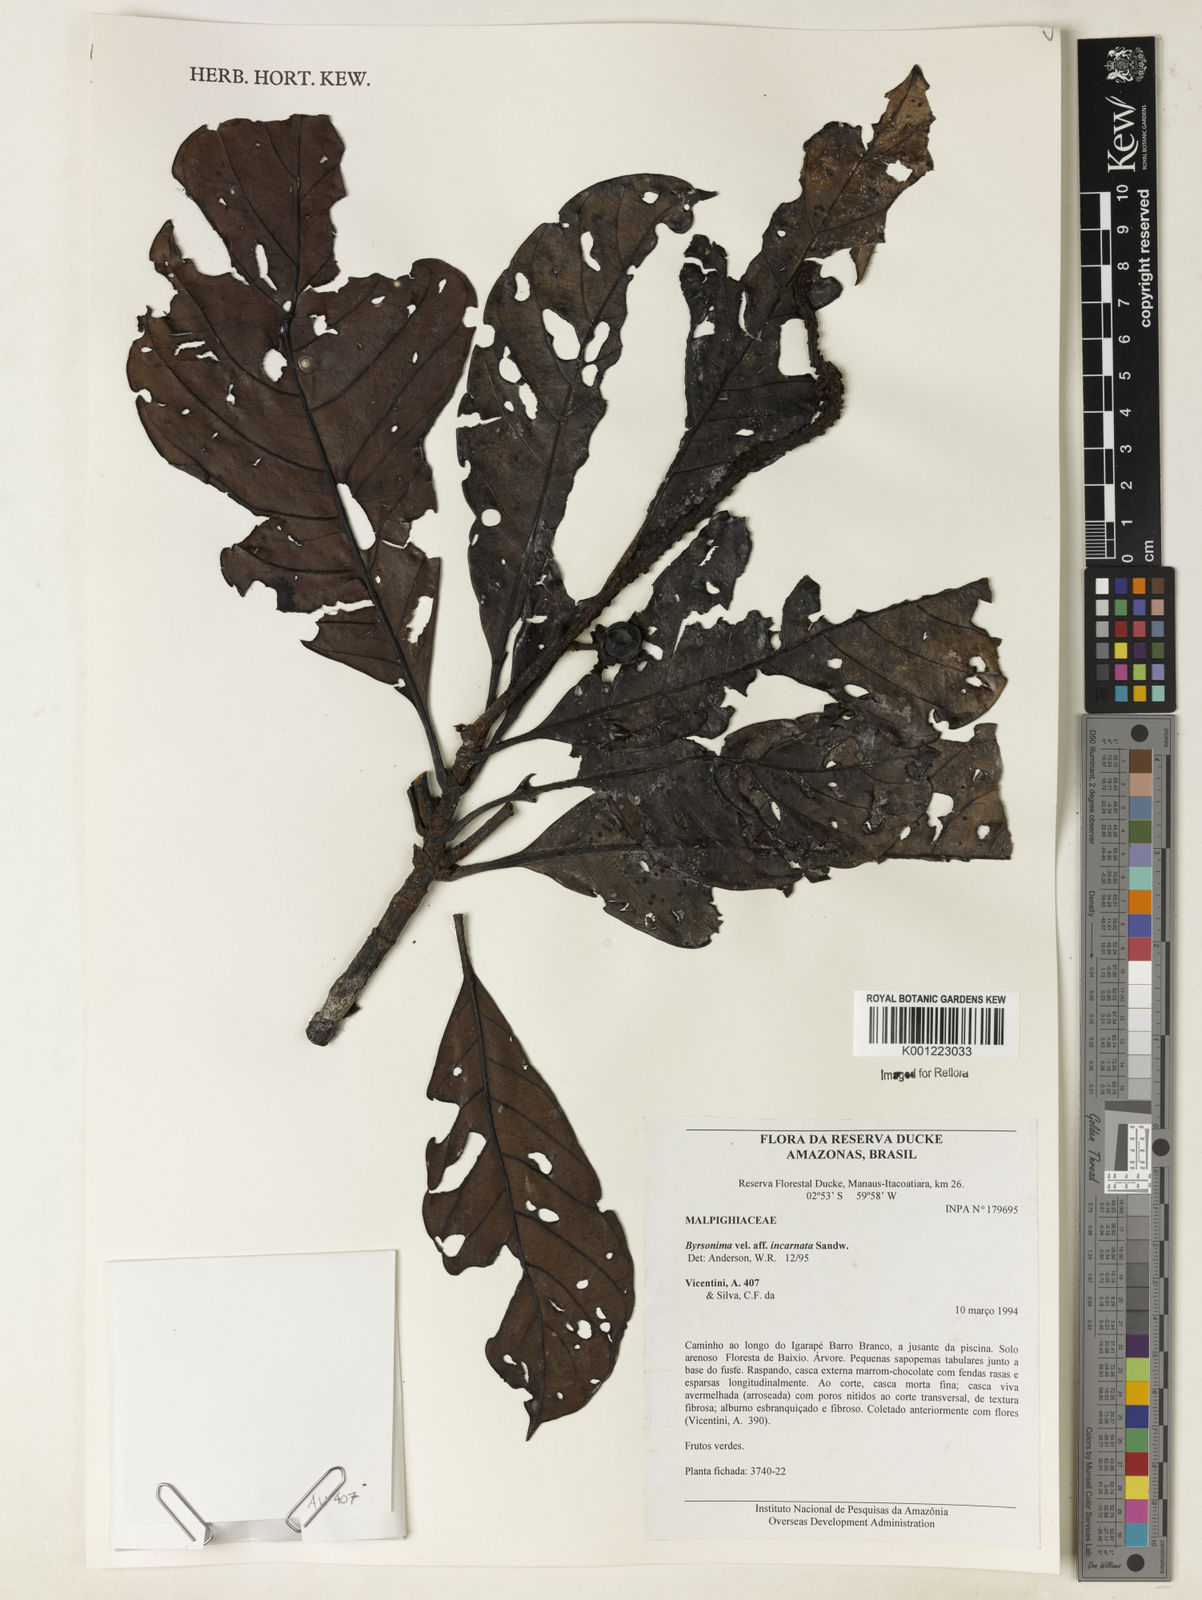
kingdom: Plantae
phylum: Tracheophyta
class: Magnoliopsida
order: Malpighiales
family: Malpighiaceae
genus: Byrsonima
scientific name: Byrsonima incarnata
